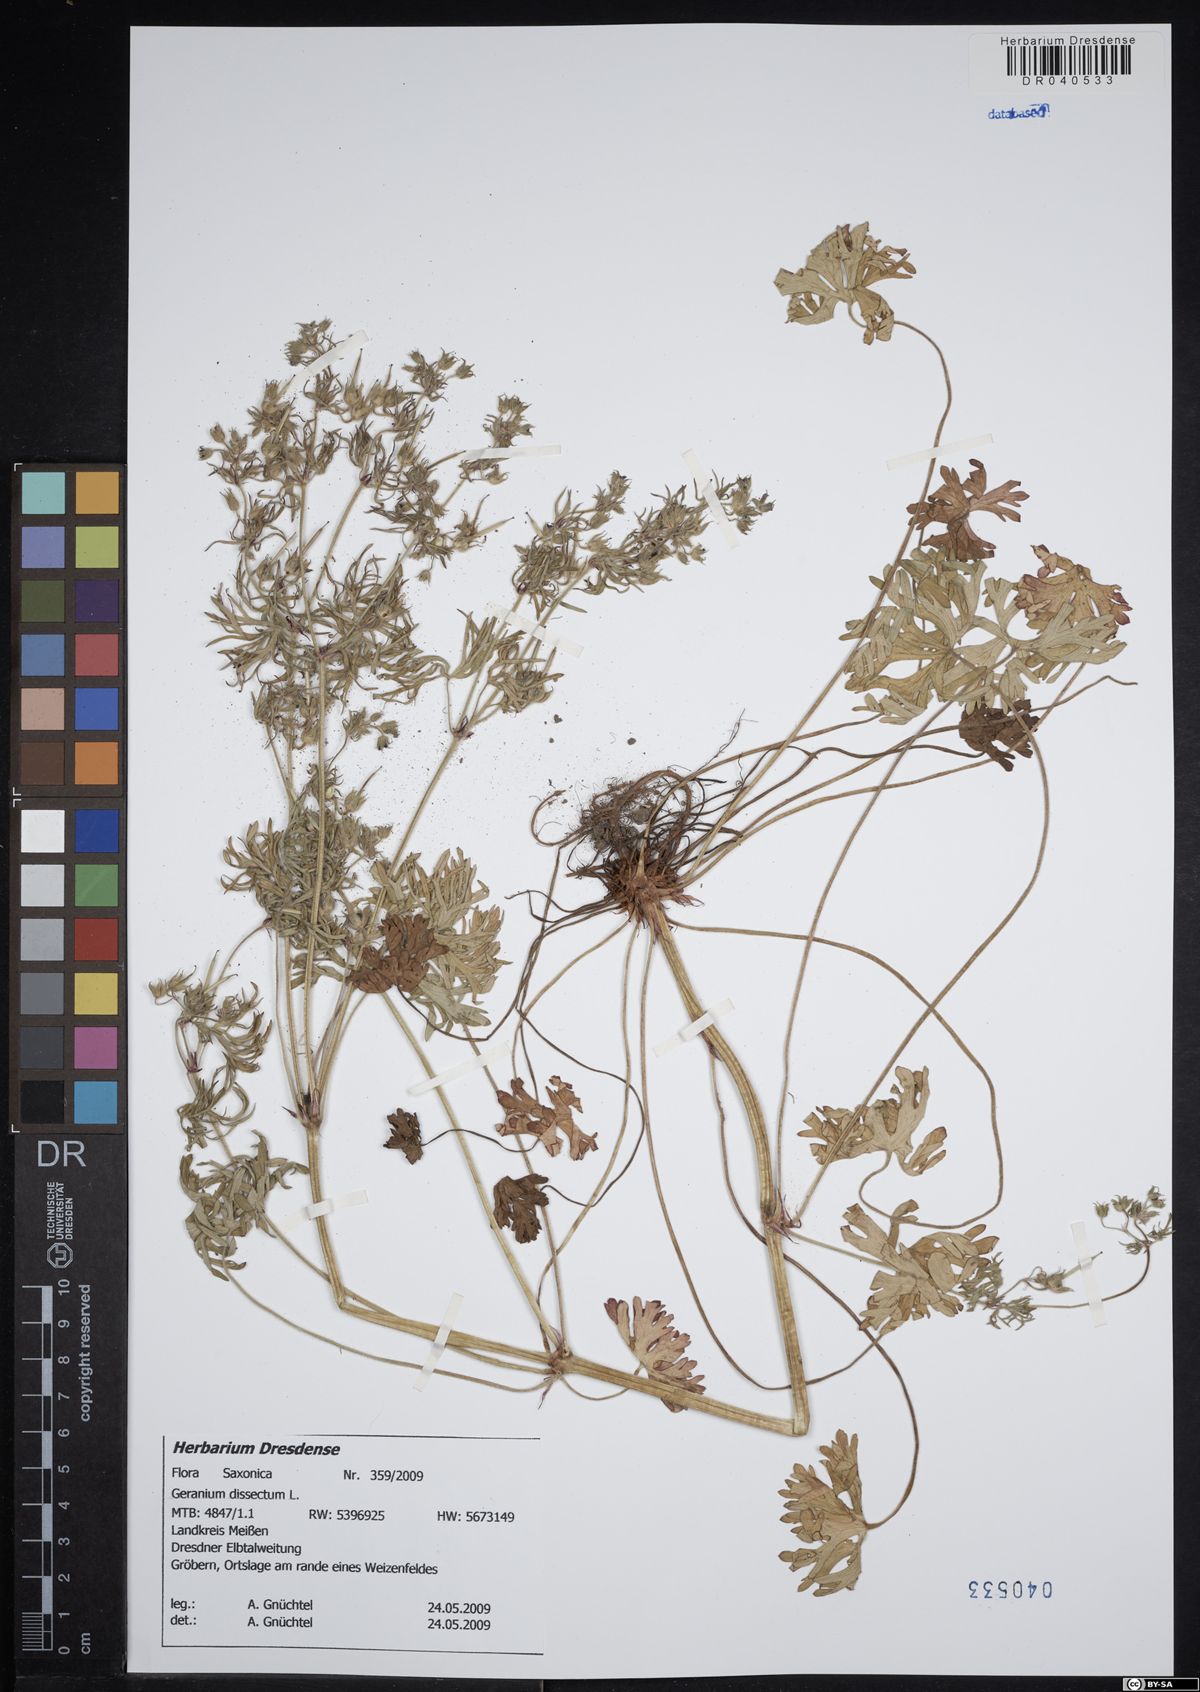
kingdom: Plantae
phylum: Tracheophyta
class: Magnoliopsida
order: Geraniales
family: Geraniaceae
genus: Geranium
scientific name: Geranium dissectum
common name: Cut-leaved crane's-bill
